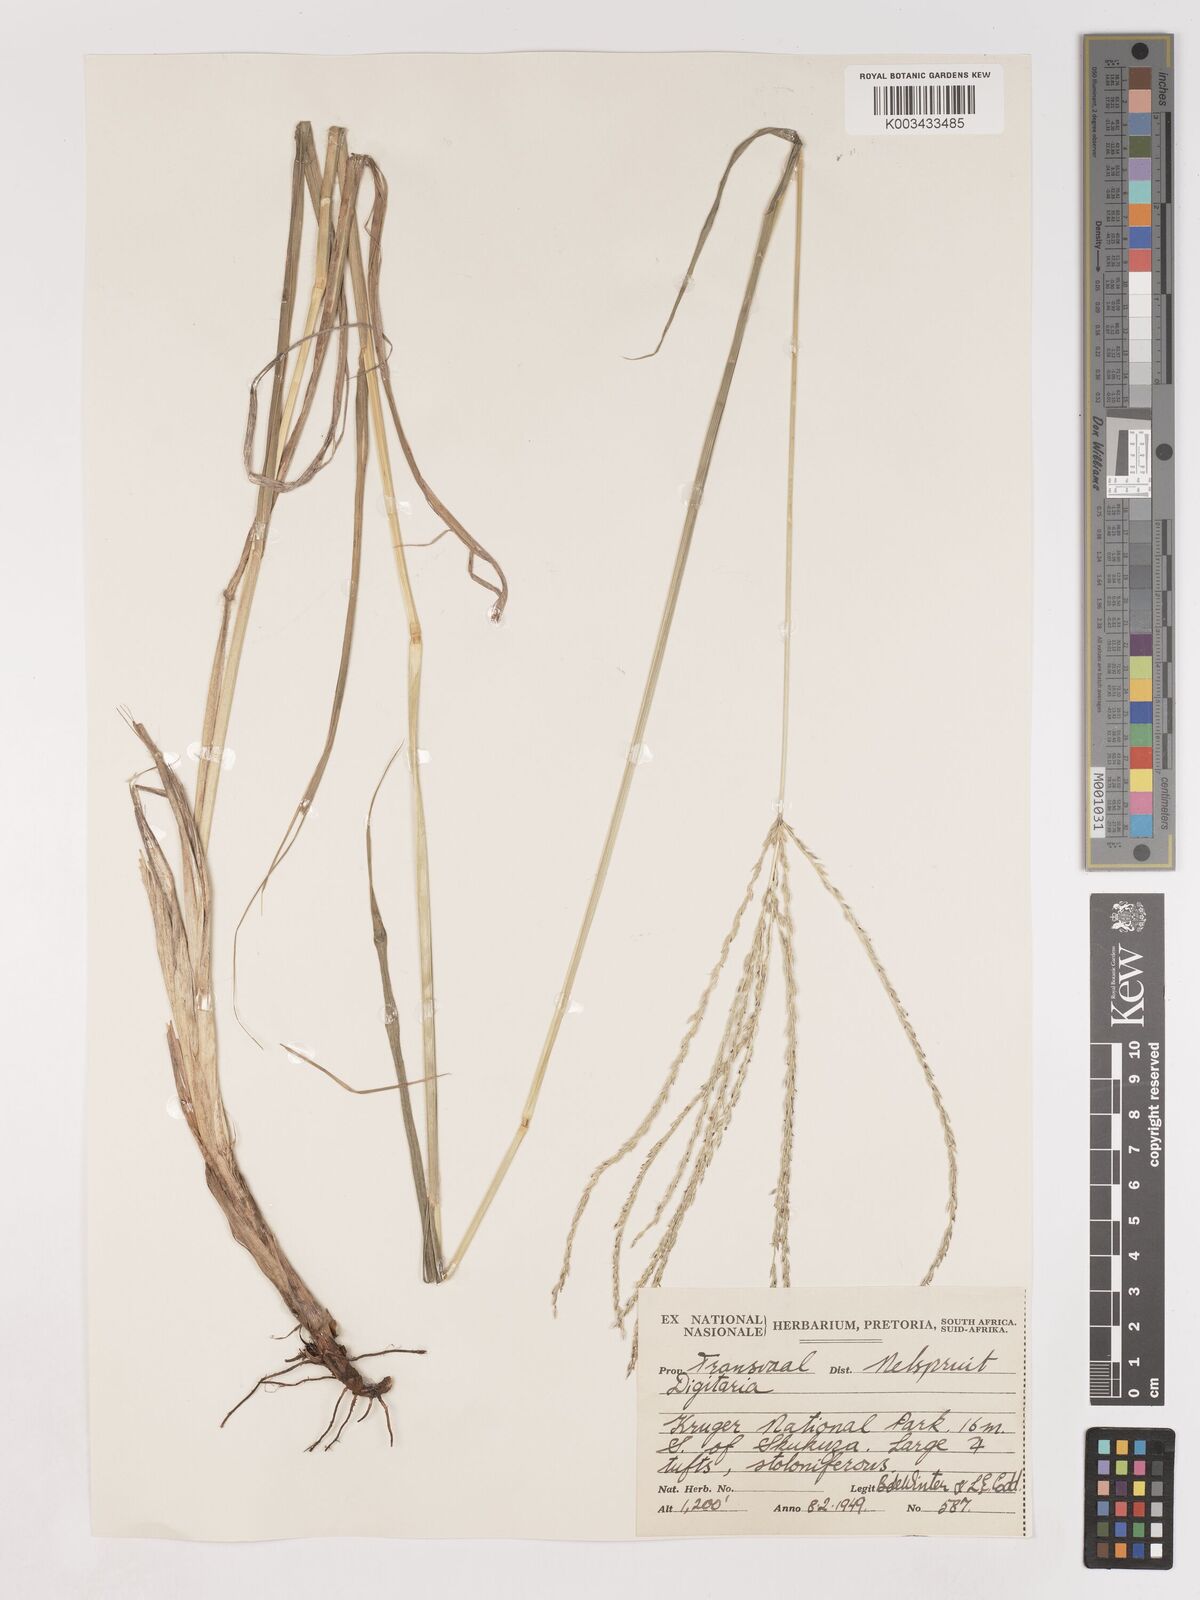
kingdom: Plantae
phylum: Tracheophyta
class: Liliopsida
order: Poales
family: Poaceae
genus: Digitaria
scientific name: Digitaria eriantha
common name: Digitgrass
